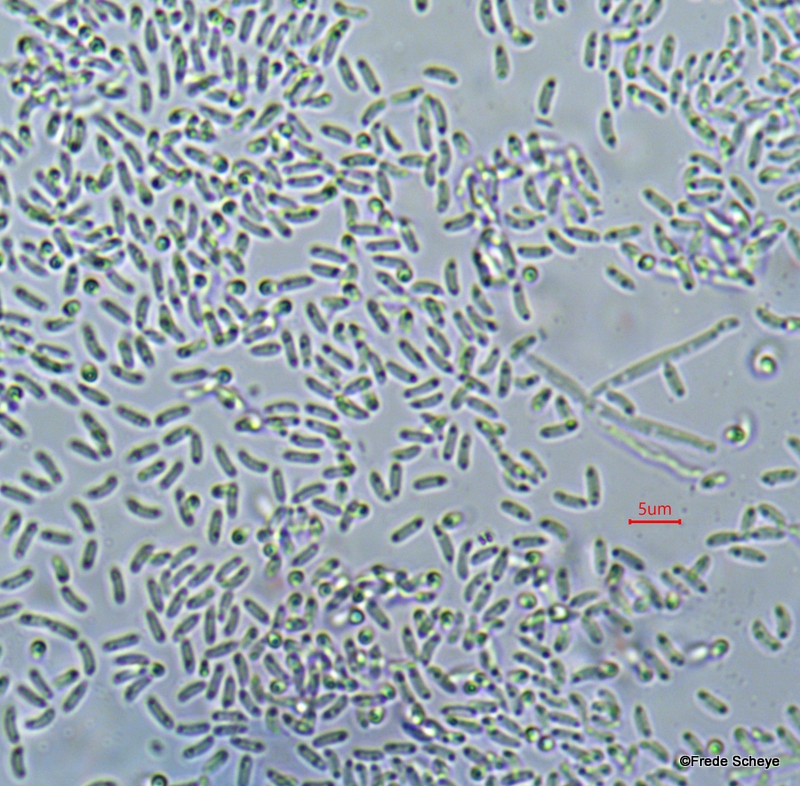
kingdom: Fungi
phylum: Ascomycota
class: Leotiomycetes
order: Helotiales
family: Gelatinodiscaceae
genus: Ascocoryne
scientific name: Ascocoryne sarcoides
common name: rødlilla sejskive
